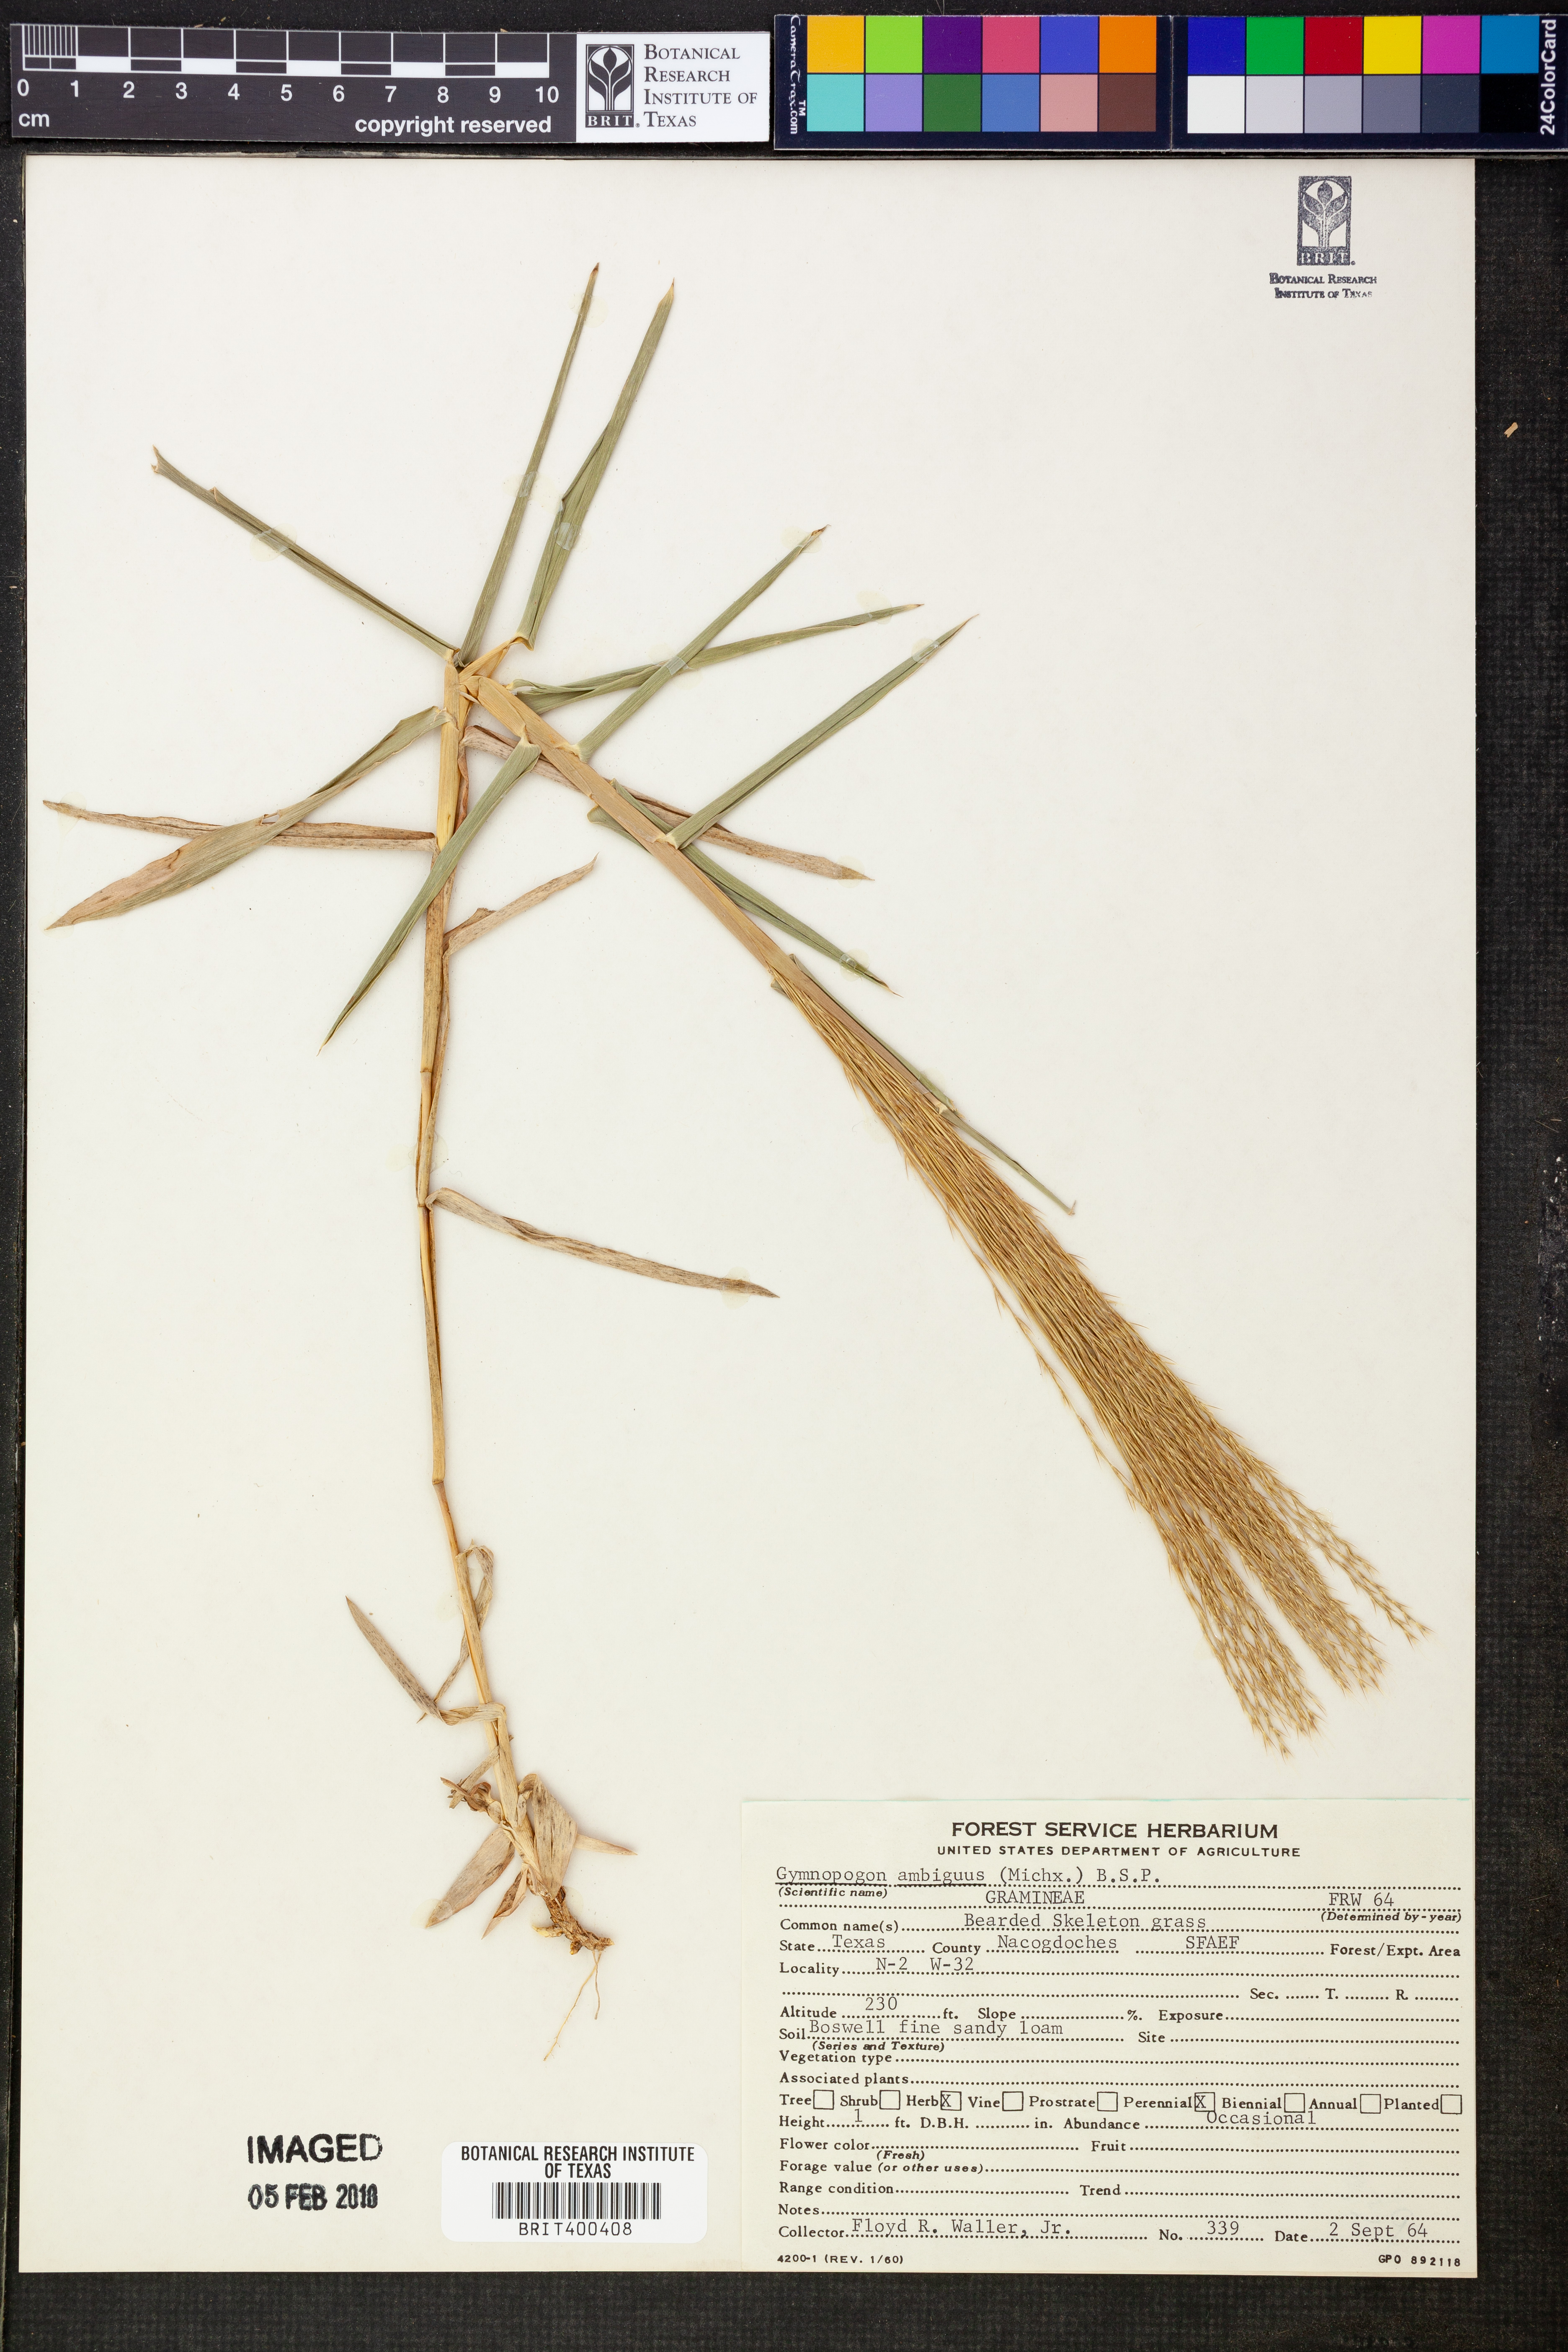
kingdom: Plantae
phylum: Tracheophyta
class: Liliopsida
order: Poales
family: Poaceae
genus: Gymnopogon
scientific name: Gymnopogon ambiguus
